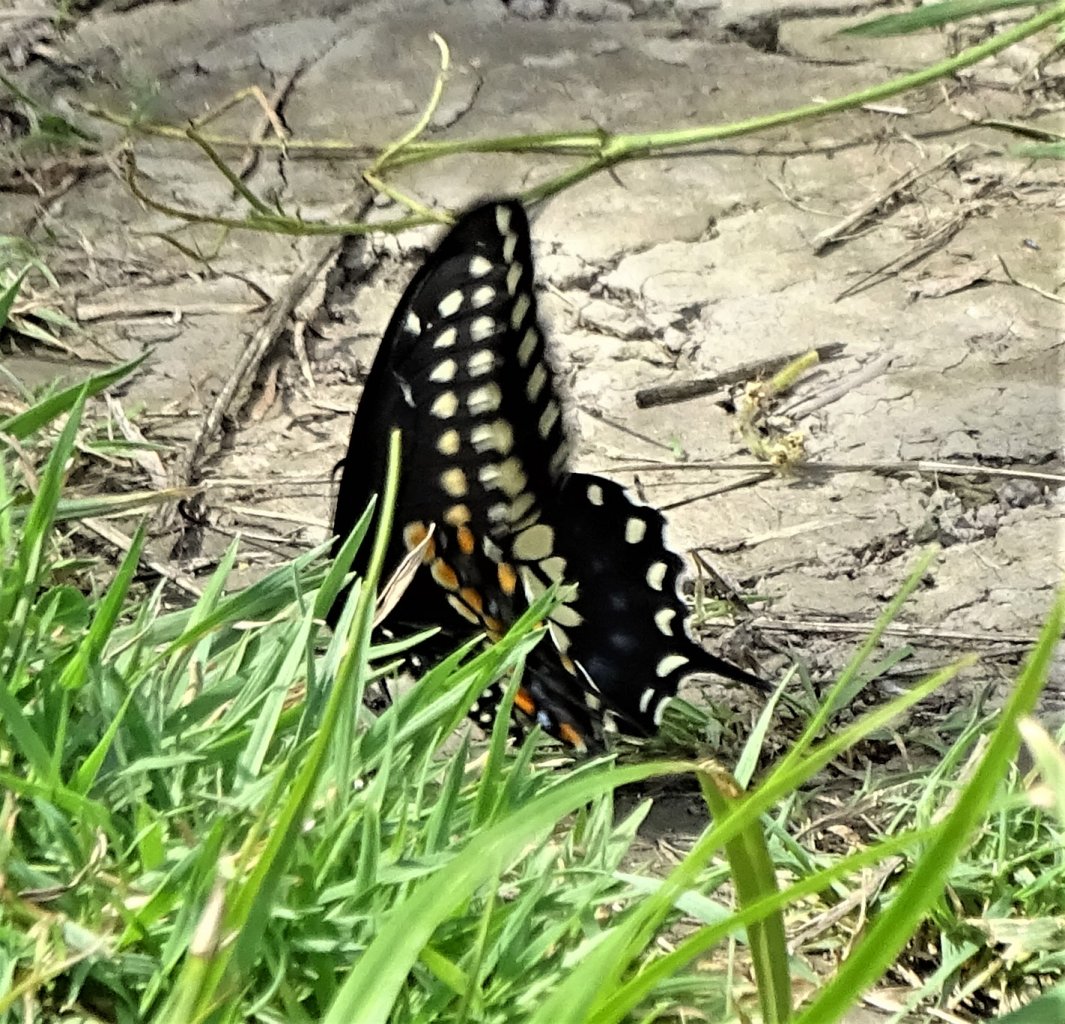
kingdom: Animalia
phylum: Arthropoda
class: Insecta
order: Lepidoptera
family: Papilionidae
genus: Papilio
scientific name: Papilio polyxenes
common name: Black Swallowtail
